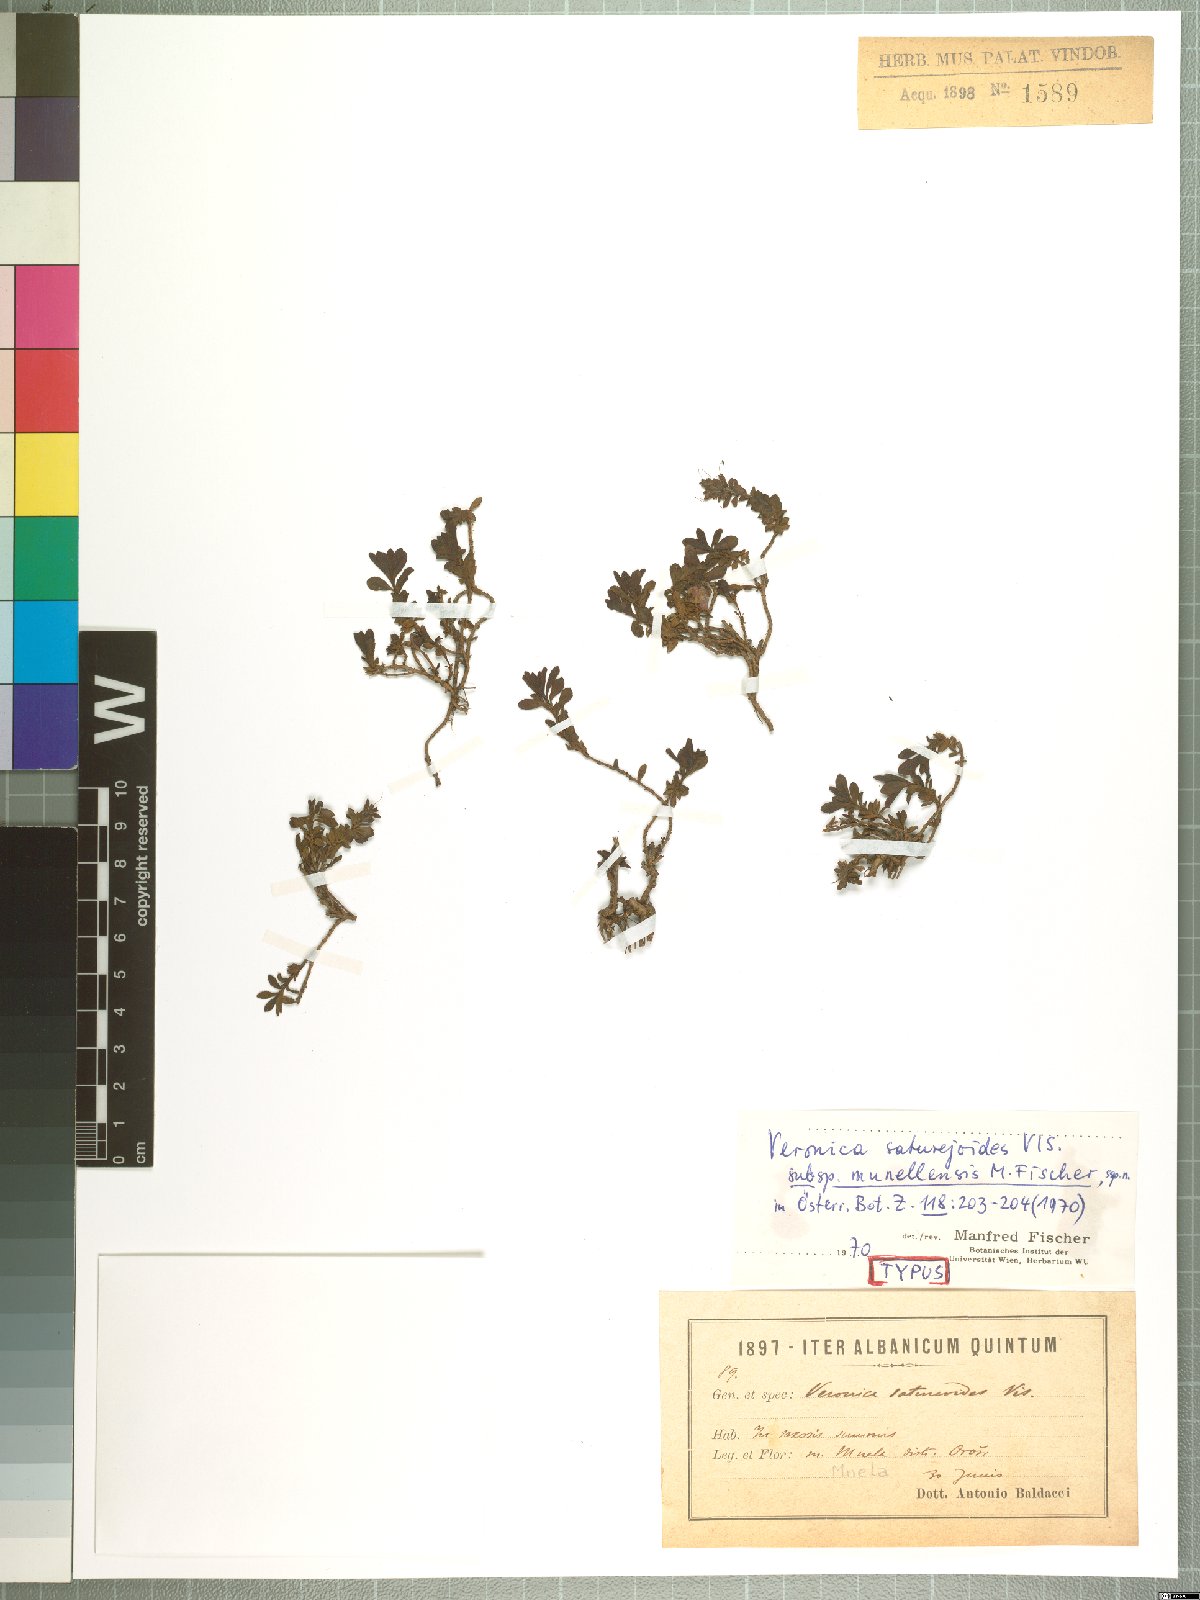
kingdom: Plantae
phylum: Tracheophyta
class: Magnoliopsida
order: Lamiales
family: Plantaginaceae
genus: Veronica
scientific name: Veronica saturejoides
